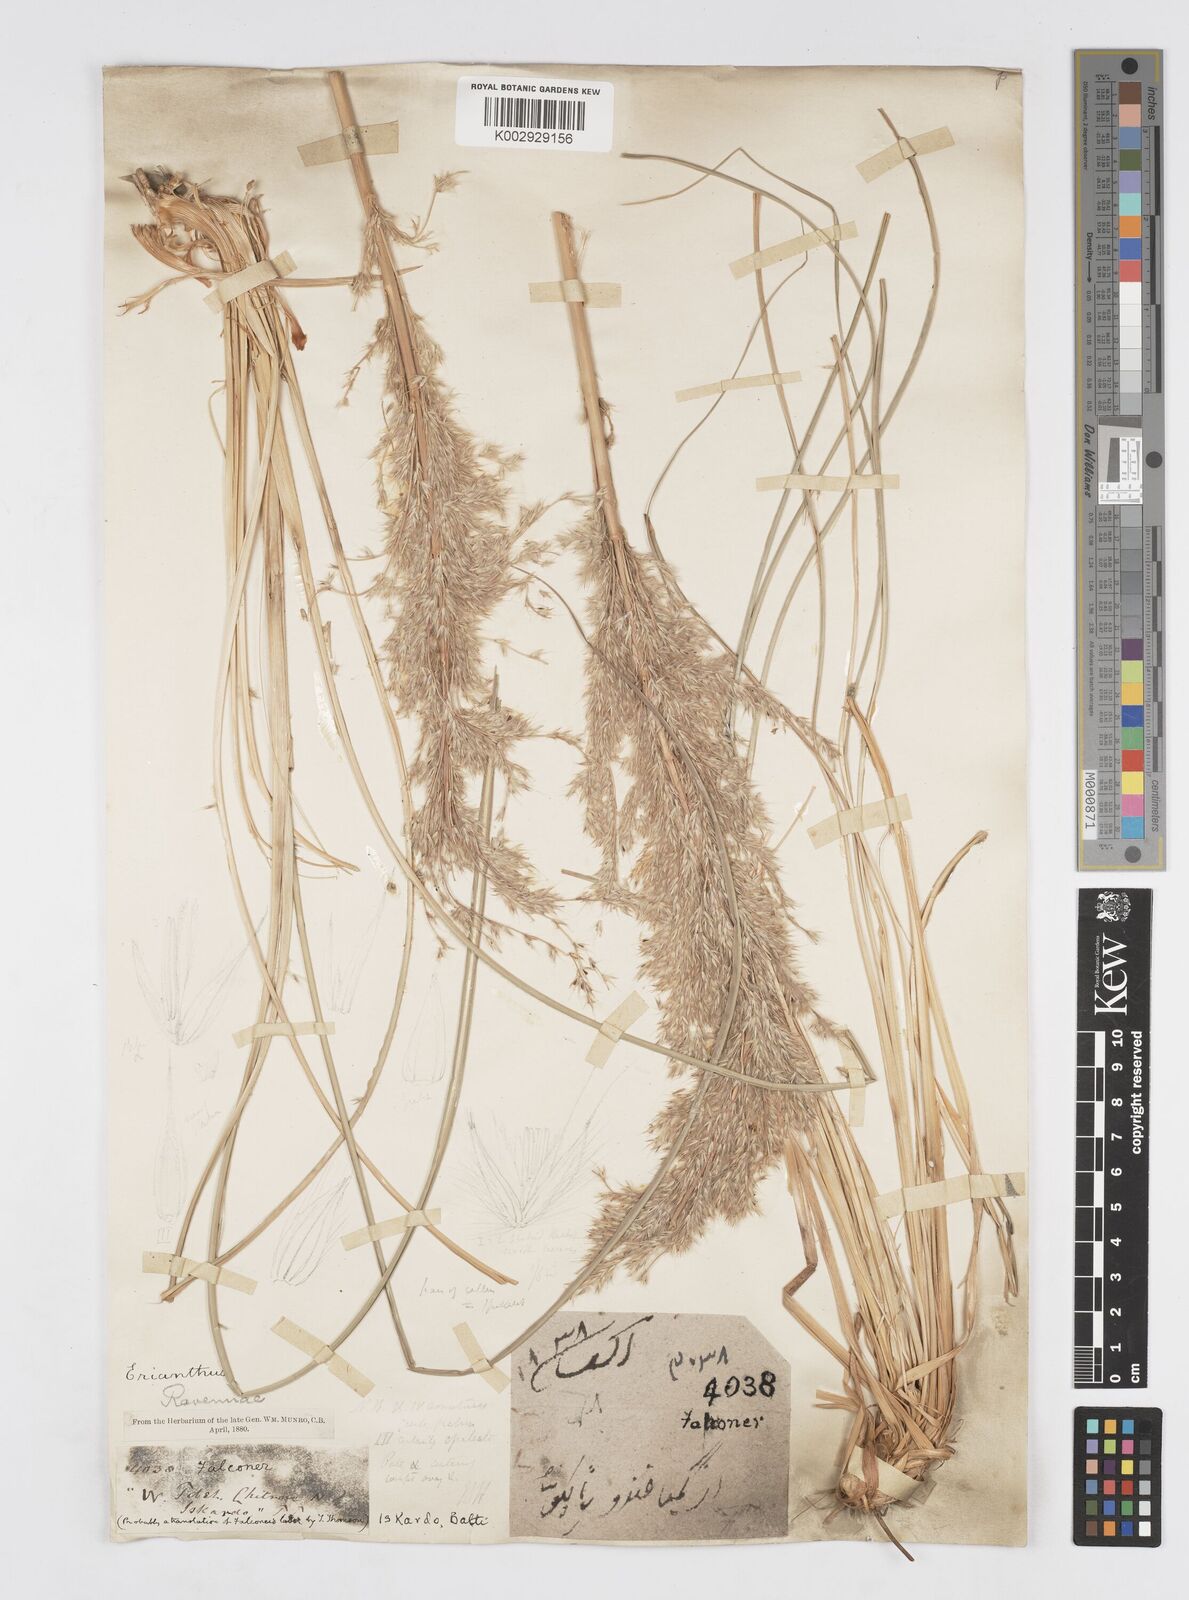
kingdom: Plantae
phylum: Tracheophyta
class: Liliopsida
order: Poales
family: Poaceae
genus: Saccharum
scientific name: Saccharum
